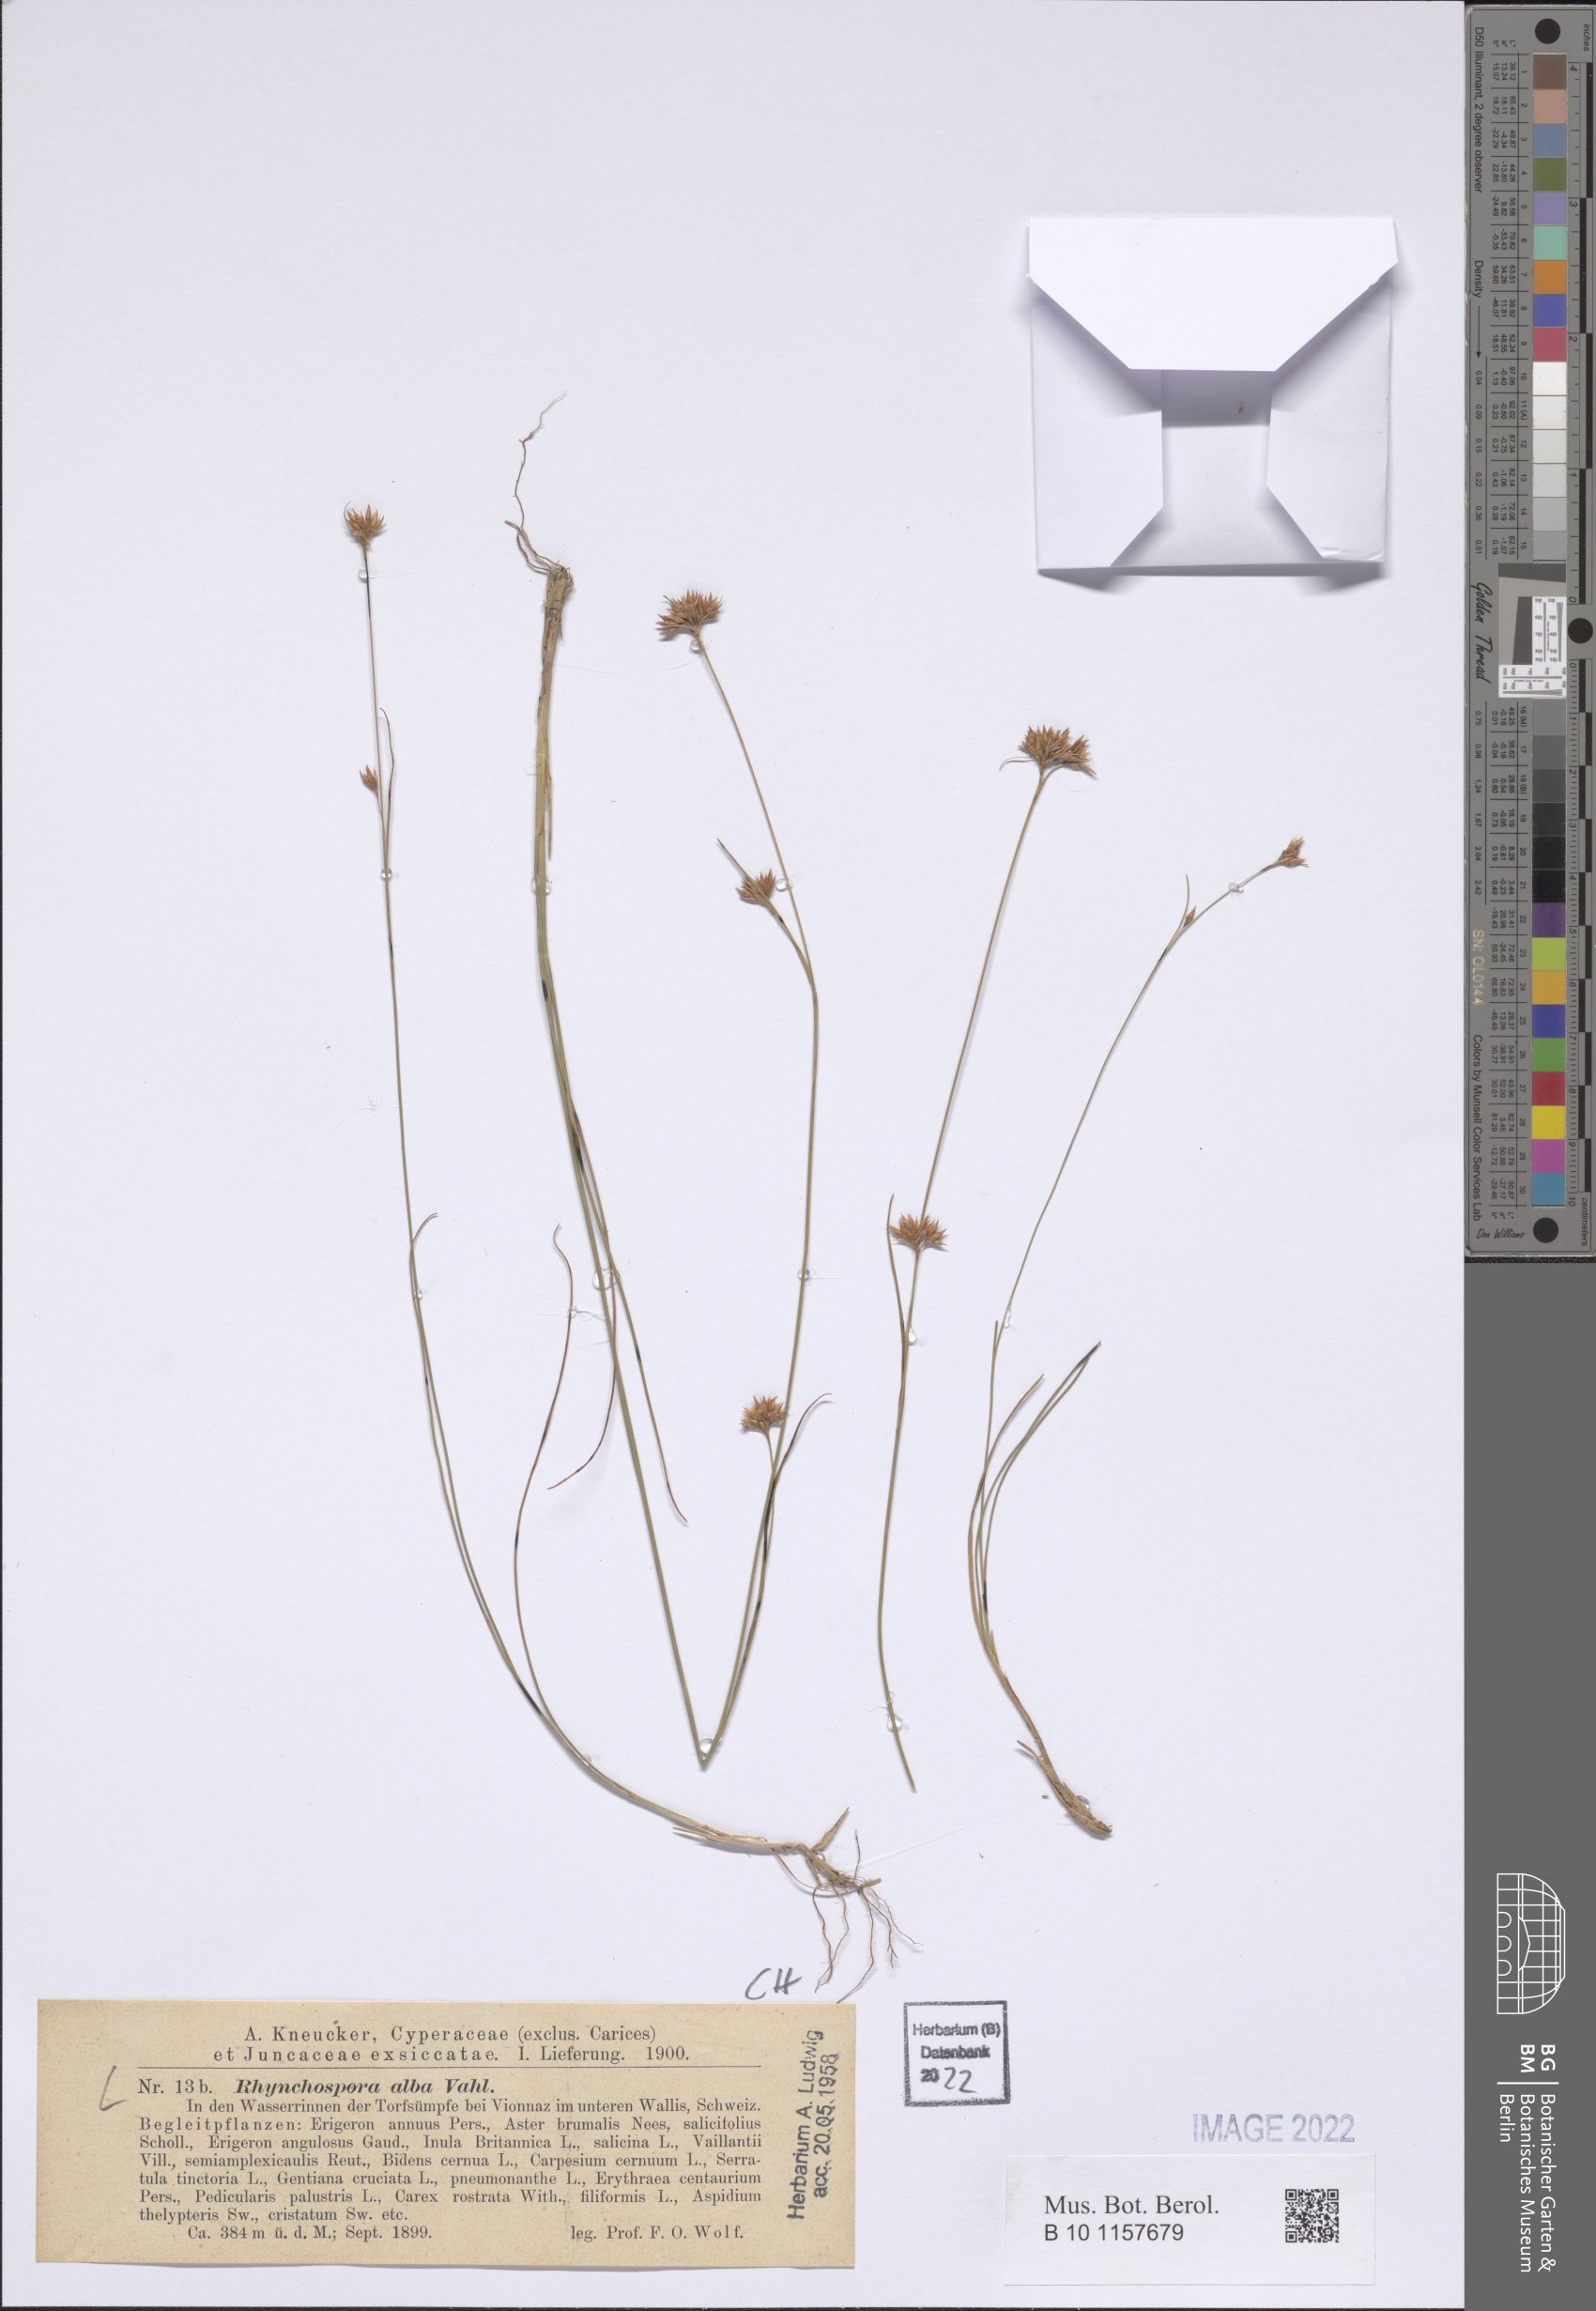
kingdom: Plantae
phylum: Tracheophyta
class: Liliopsida
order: Poales
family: Cyperaceae
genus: Rhynchospora
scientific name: Rhynchospora alba
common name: White beak-sedge
